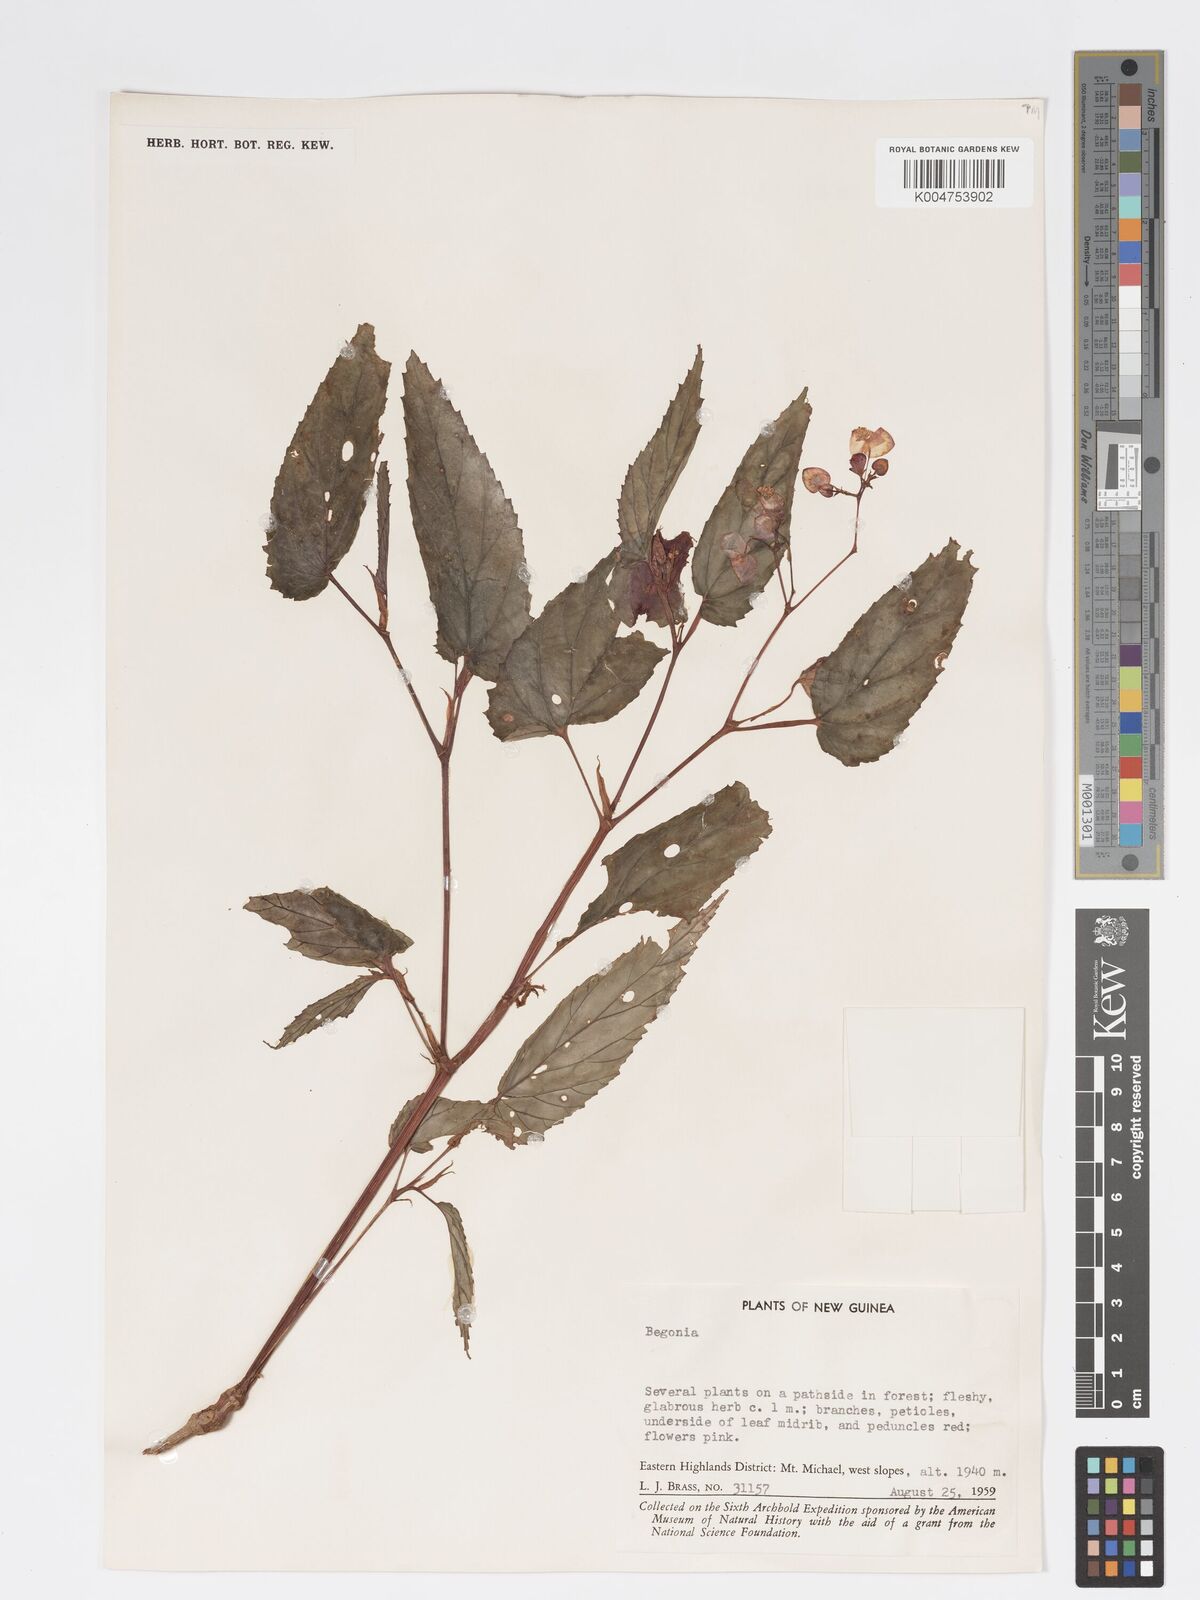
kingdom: Plantae
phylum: Tracheophyta
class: Magnoliopsida
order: Cucurbitales
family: Begoniaceae
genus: Begonia
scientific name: Begonia
